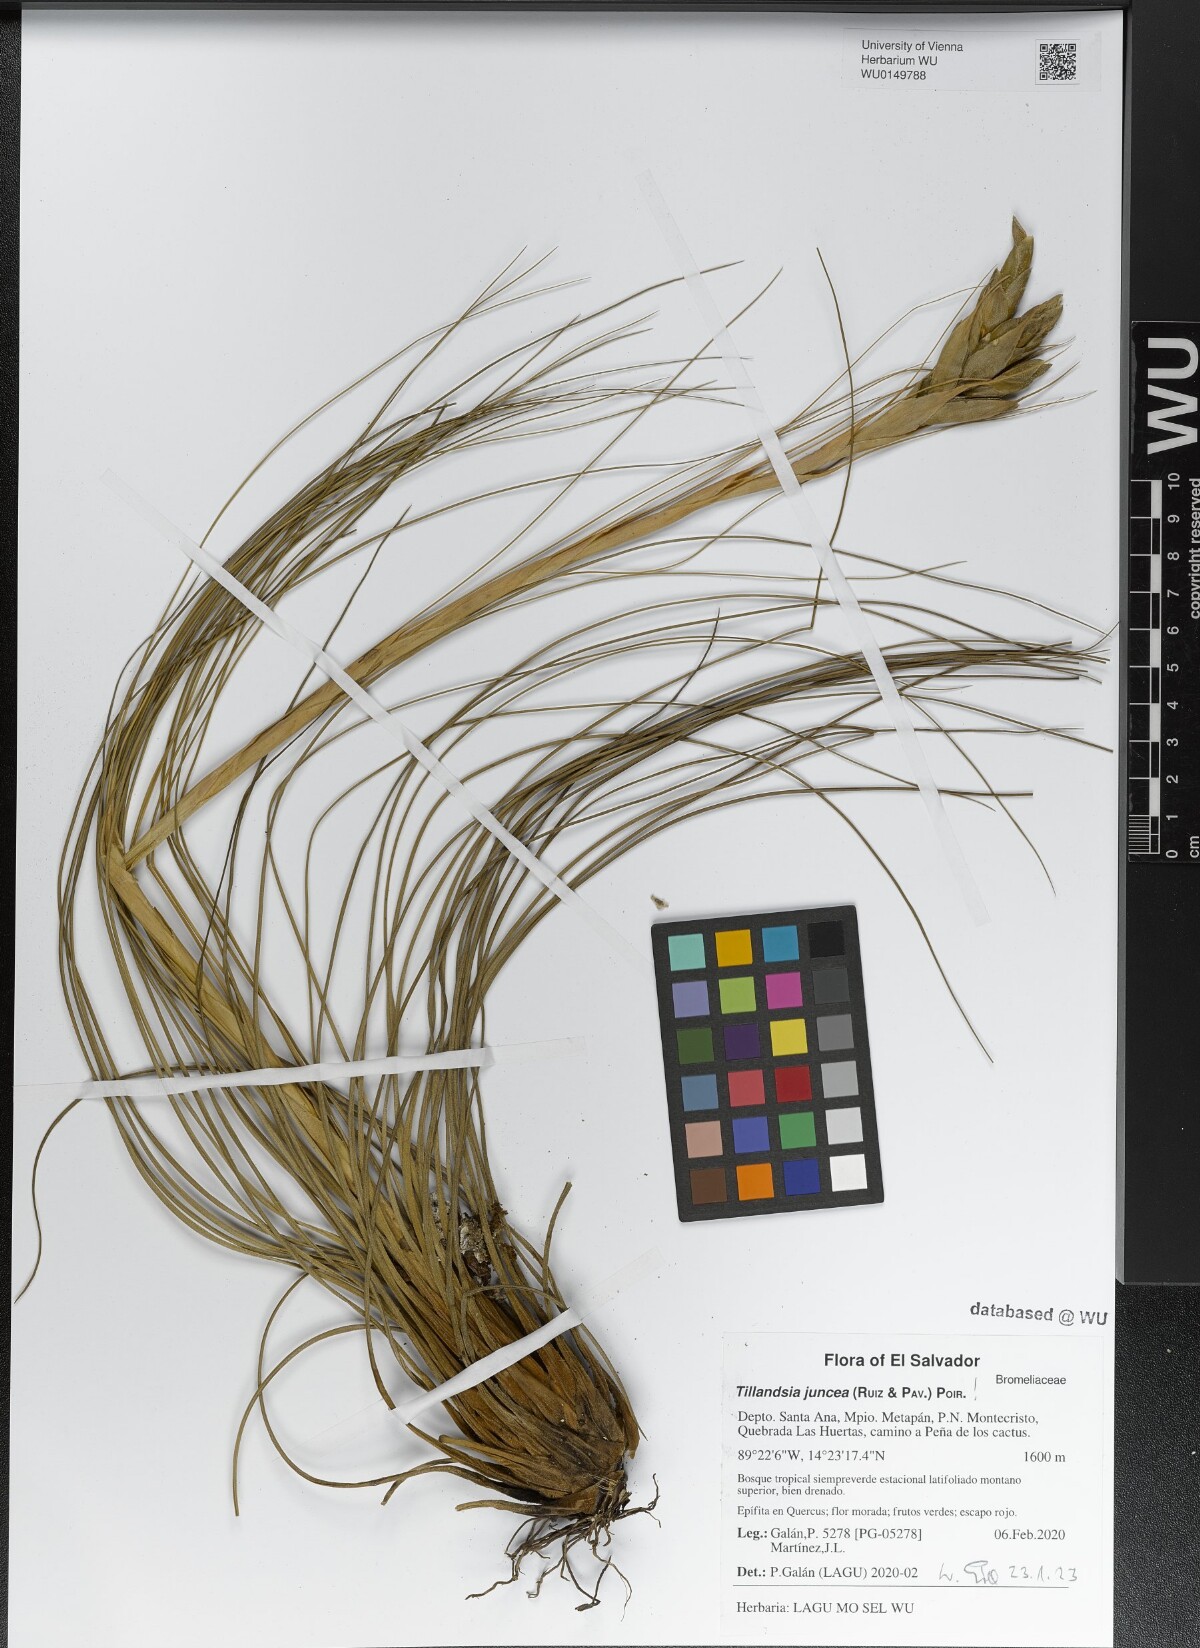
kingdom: Plantae
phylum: Tracheophyta
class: Liliopsida
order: Poales
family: Bromeliaceae
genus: Tillandsia
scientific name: Tillandsia juncea
